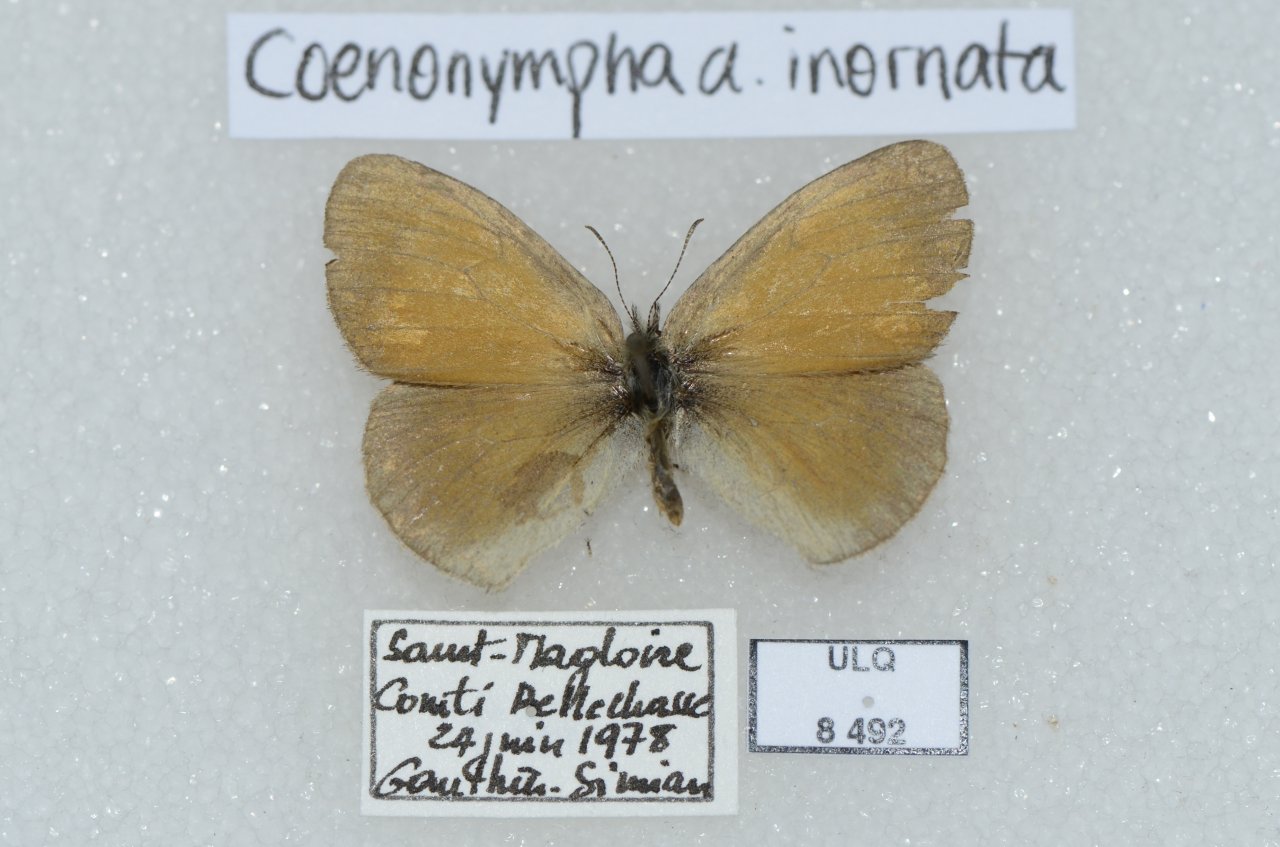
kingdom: Animalia
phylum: Arthropoda
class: Insecta
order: Lepidoptera
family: Nymphalidae
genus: Coenonympha
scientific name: Coenonympha tullia
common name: Large Heath
